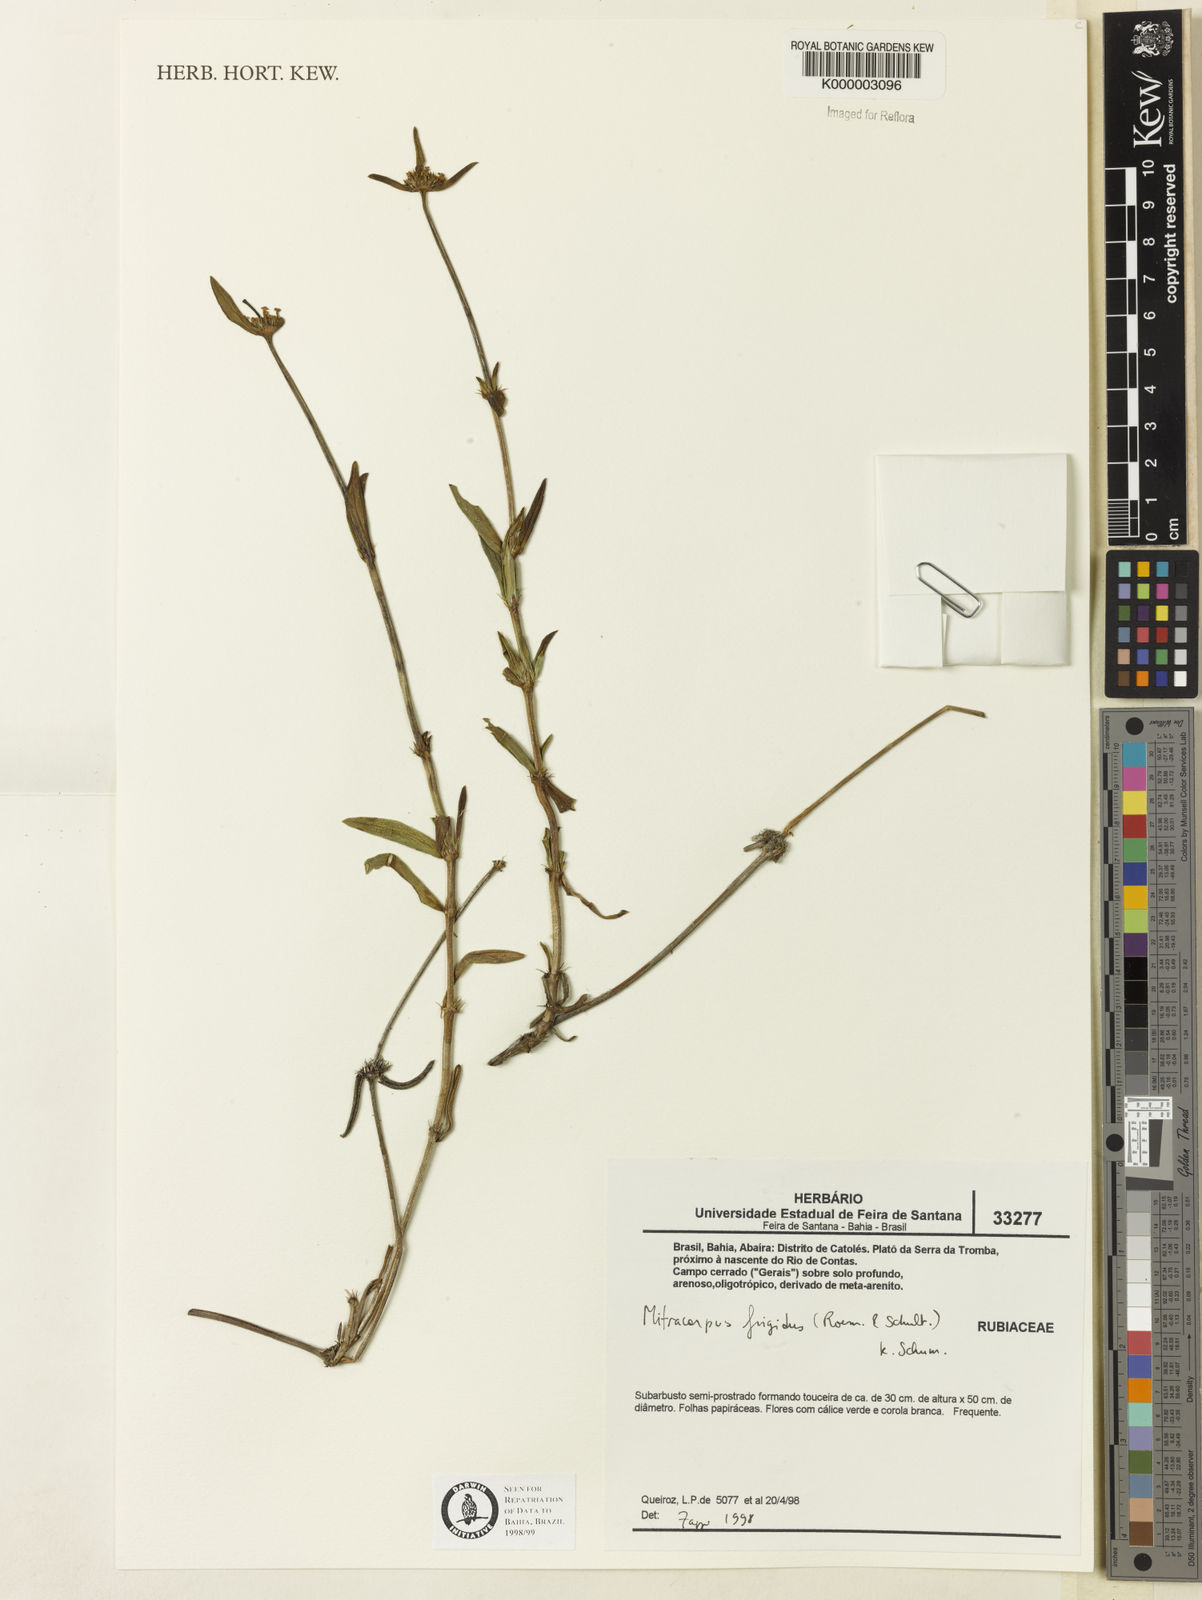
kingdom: Plantae
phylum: Tracheophyta
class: Magnoliopsida
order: Gentianales
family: Rubiaceae
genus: Mitracarpus
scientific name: Mitracarpus frigidus
